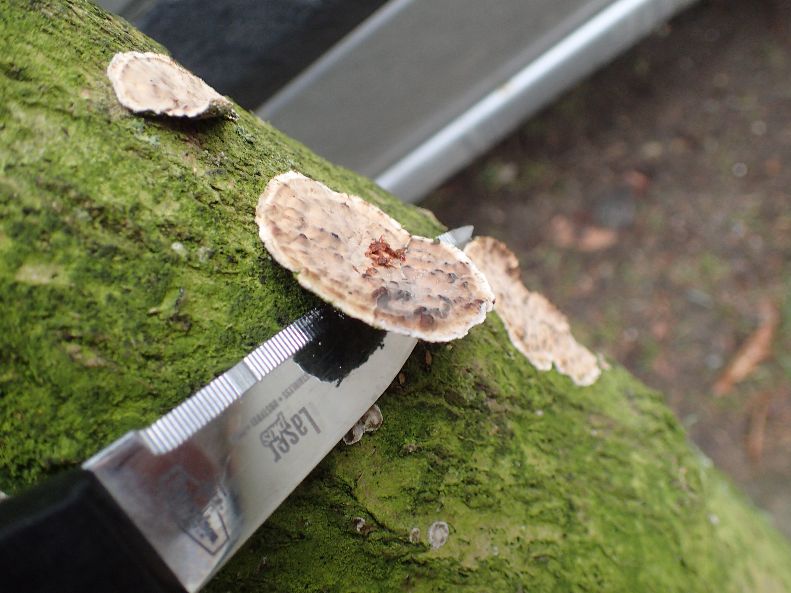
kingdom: Fungi
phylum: Basidiomycota
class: Agaricomycetes
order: Russulales
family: Stereaceae
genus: Stereum
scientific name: Stereum rugosum
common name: rynket lædersvamp
